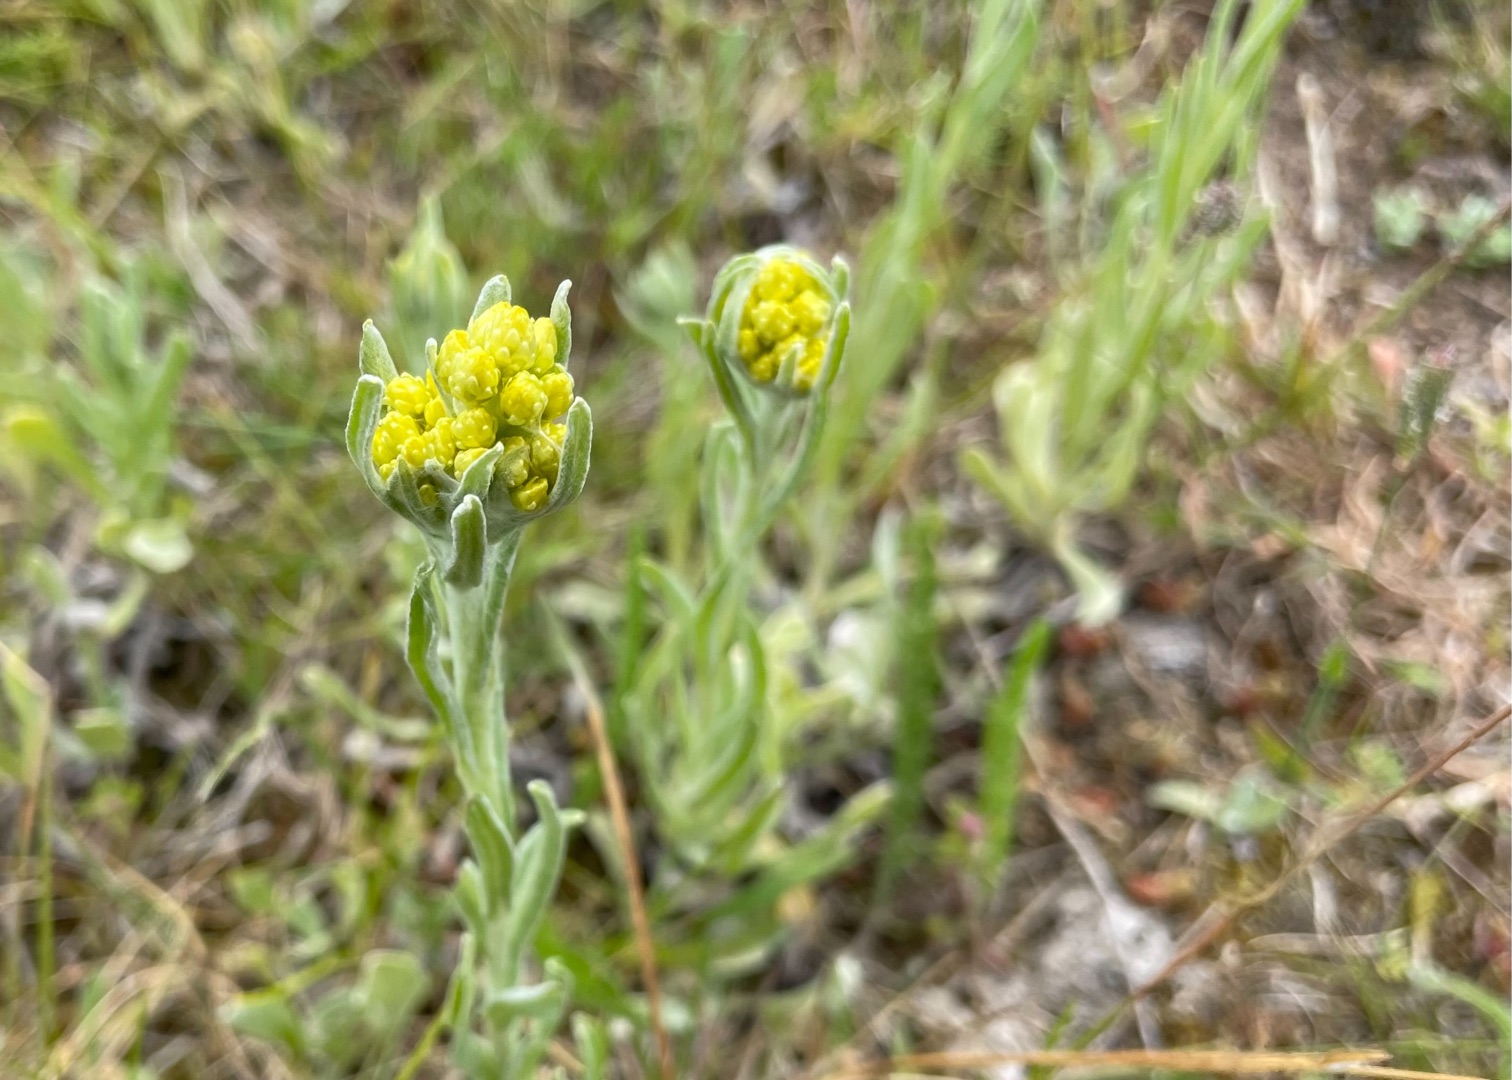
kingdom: Plantae
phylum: Tracheophyta
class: Magnoliopsida
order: Asterales
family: Asteraceae
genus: Helichrysum
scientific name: Helichrysum arenarium
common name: Gul evighedsblomst
